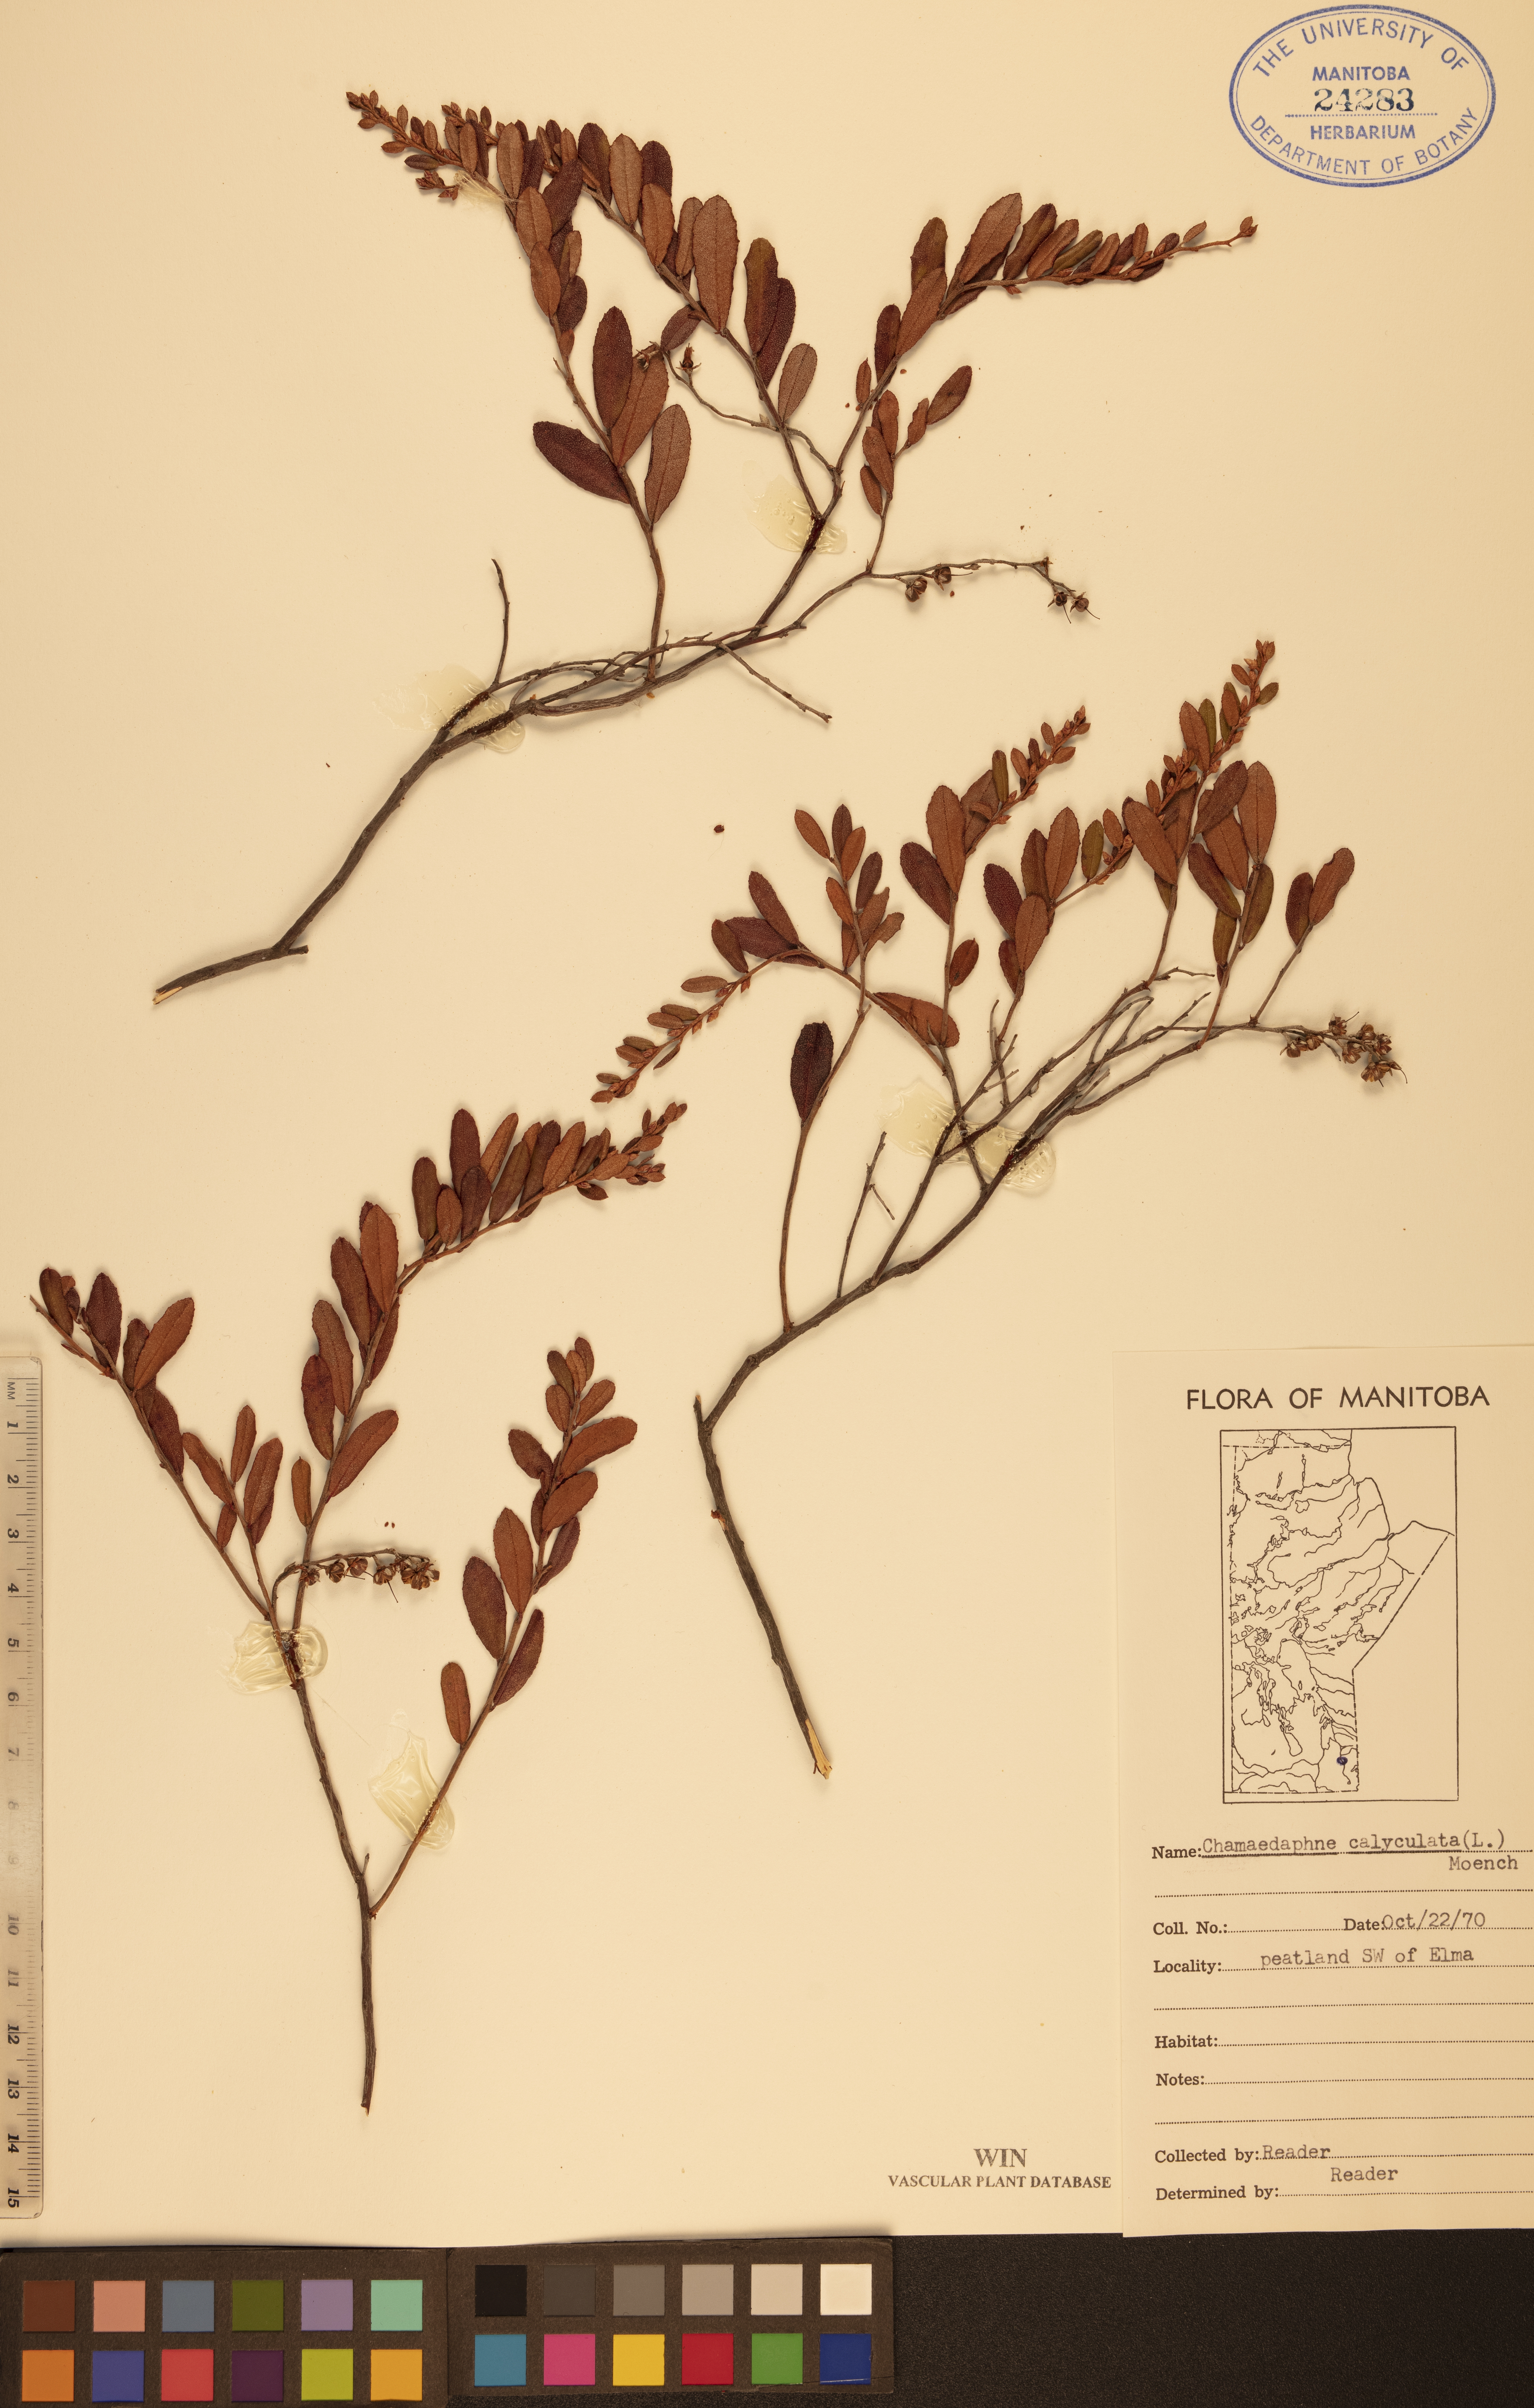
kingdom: Plantae
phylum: Tracheophyta
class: Magnoliopsida
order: Ericales
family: Ericaceae
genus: Chamaedaphne
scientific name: Chamaedaphne calyculata
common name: Leatherleaf
